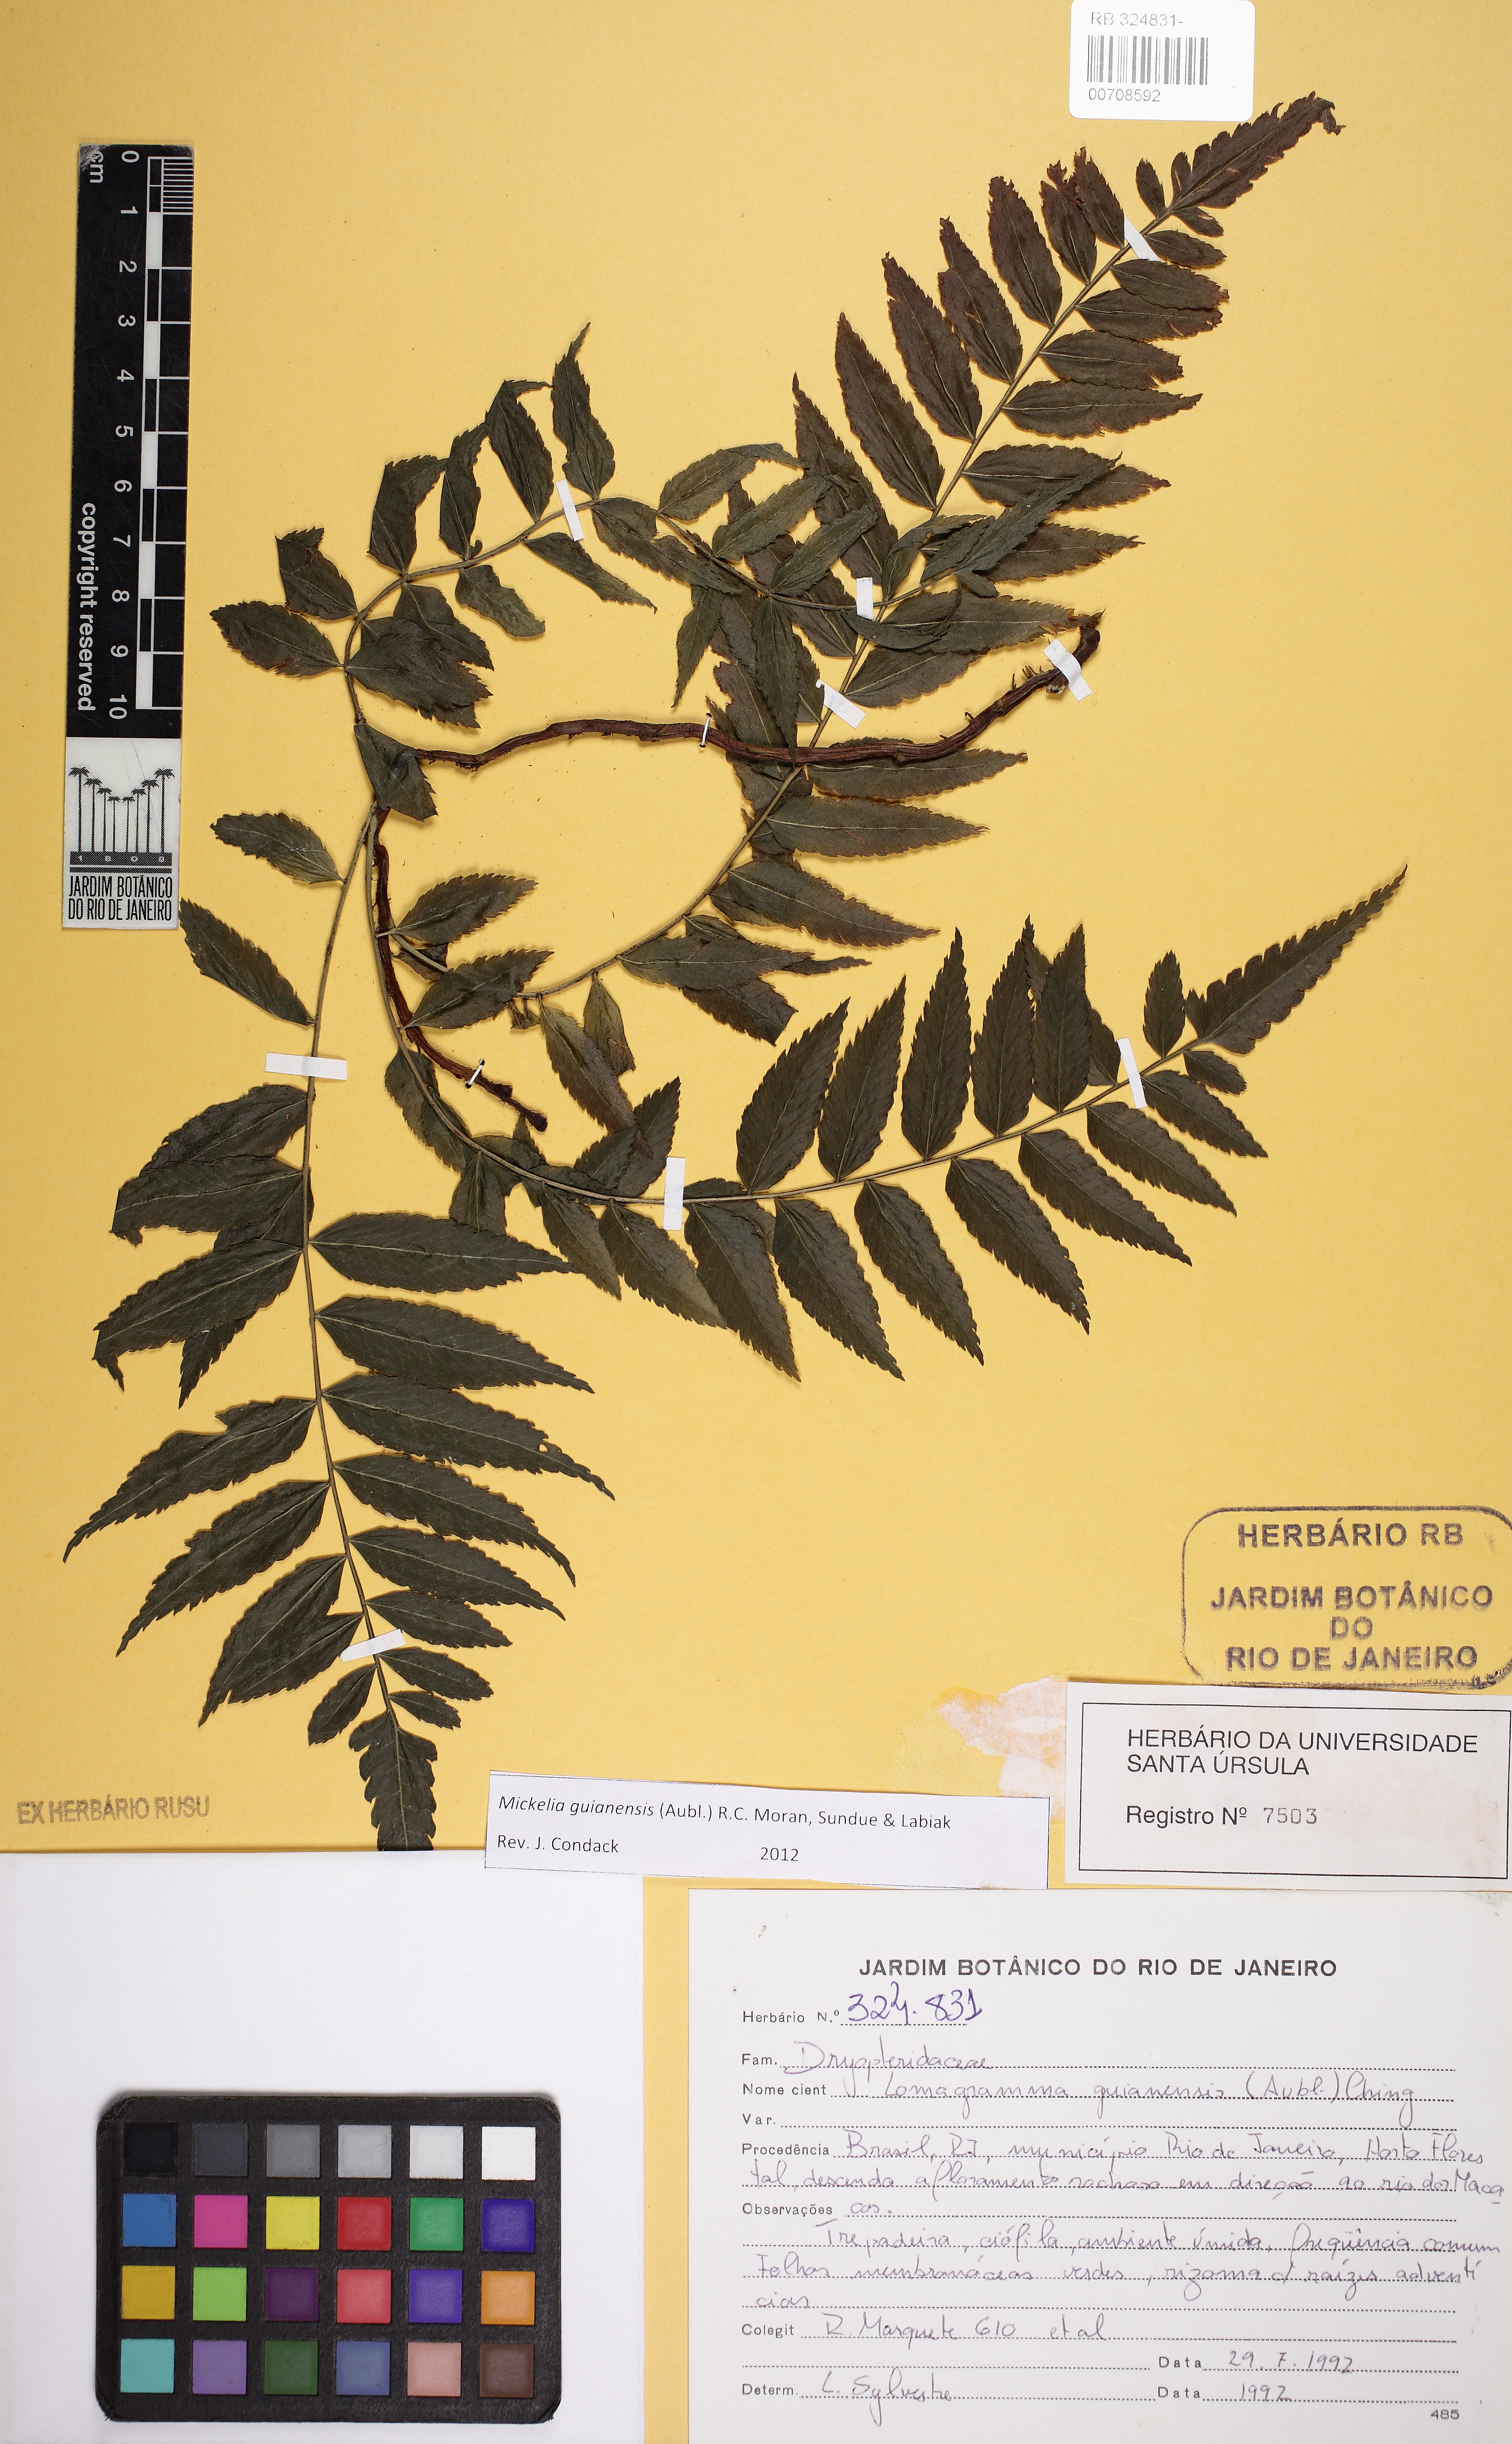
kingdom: Plantae
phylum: Tracheophyta
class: Polypodiopsida
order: Polypodiales
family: Dryopteridaceae
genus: Mickelia
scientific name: Mickelia scandens
